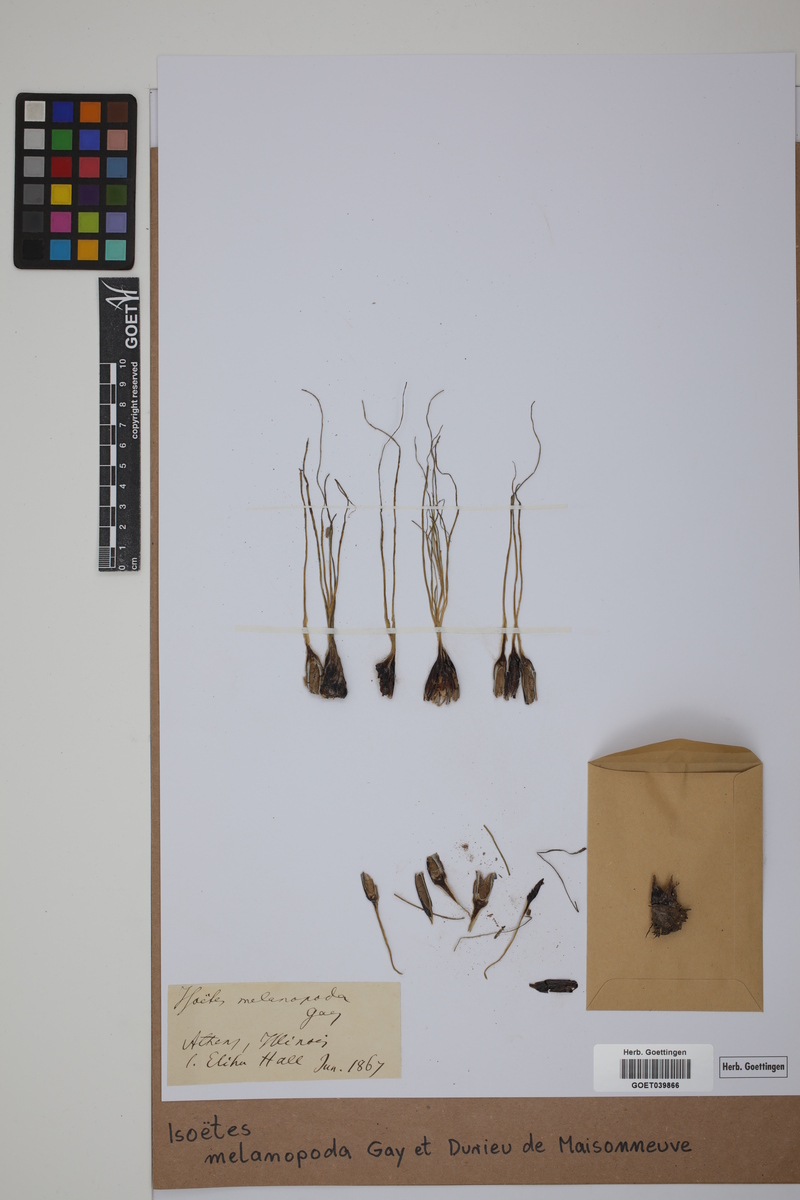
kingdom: Plantae
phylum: Tracheophyta
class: Lycopodiopsida
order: Isoetales
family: Isoetaceae
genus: Isoetes
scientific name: Isoetes melanopoda
